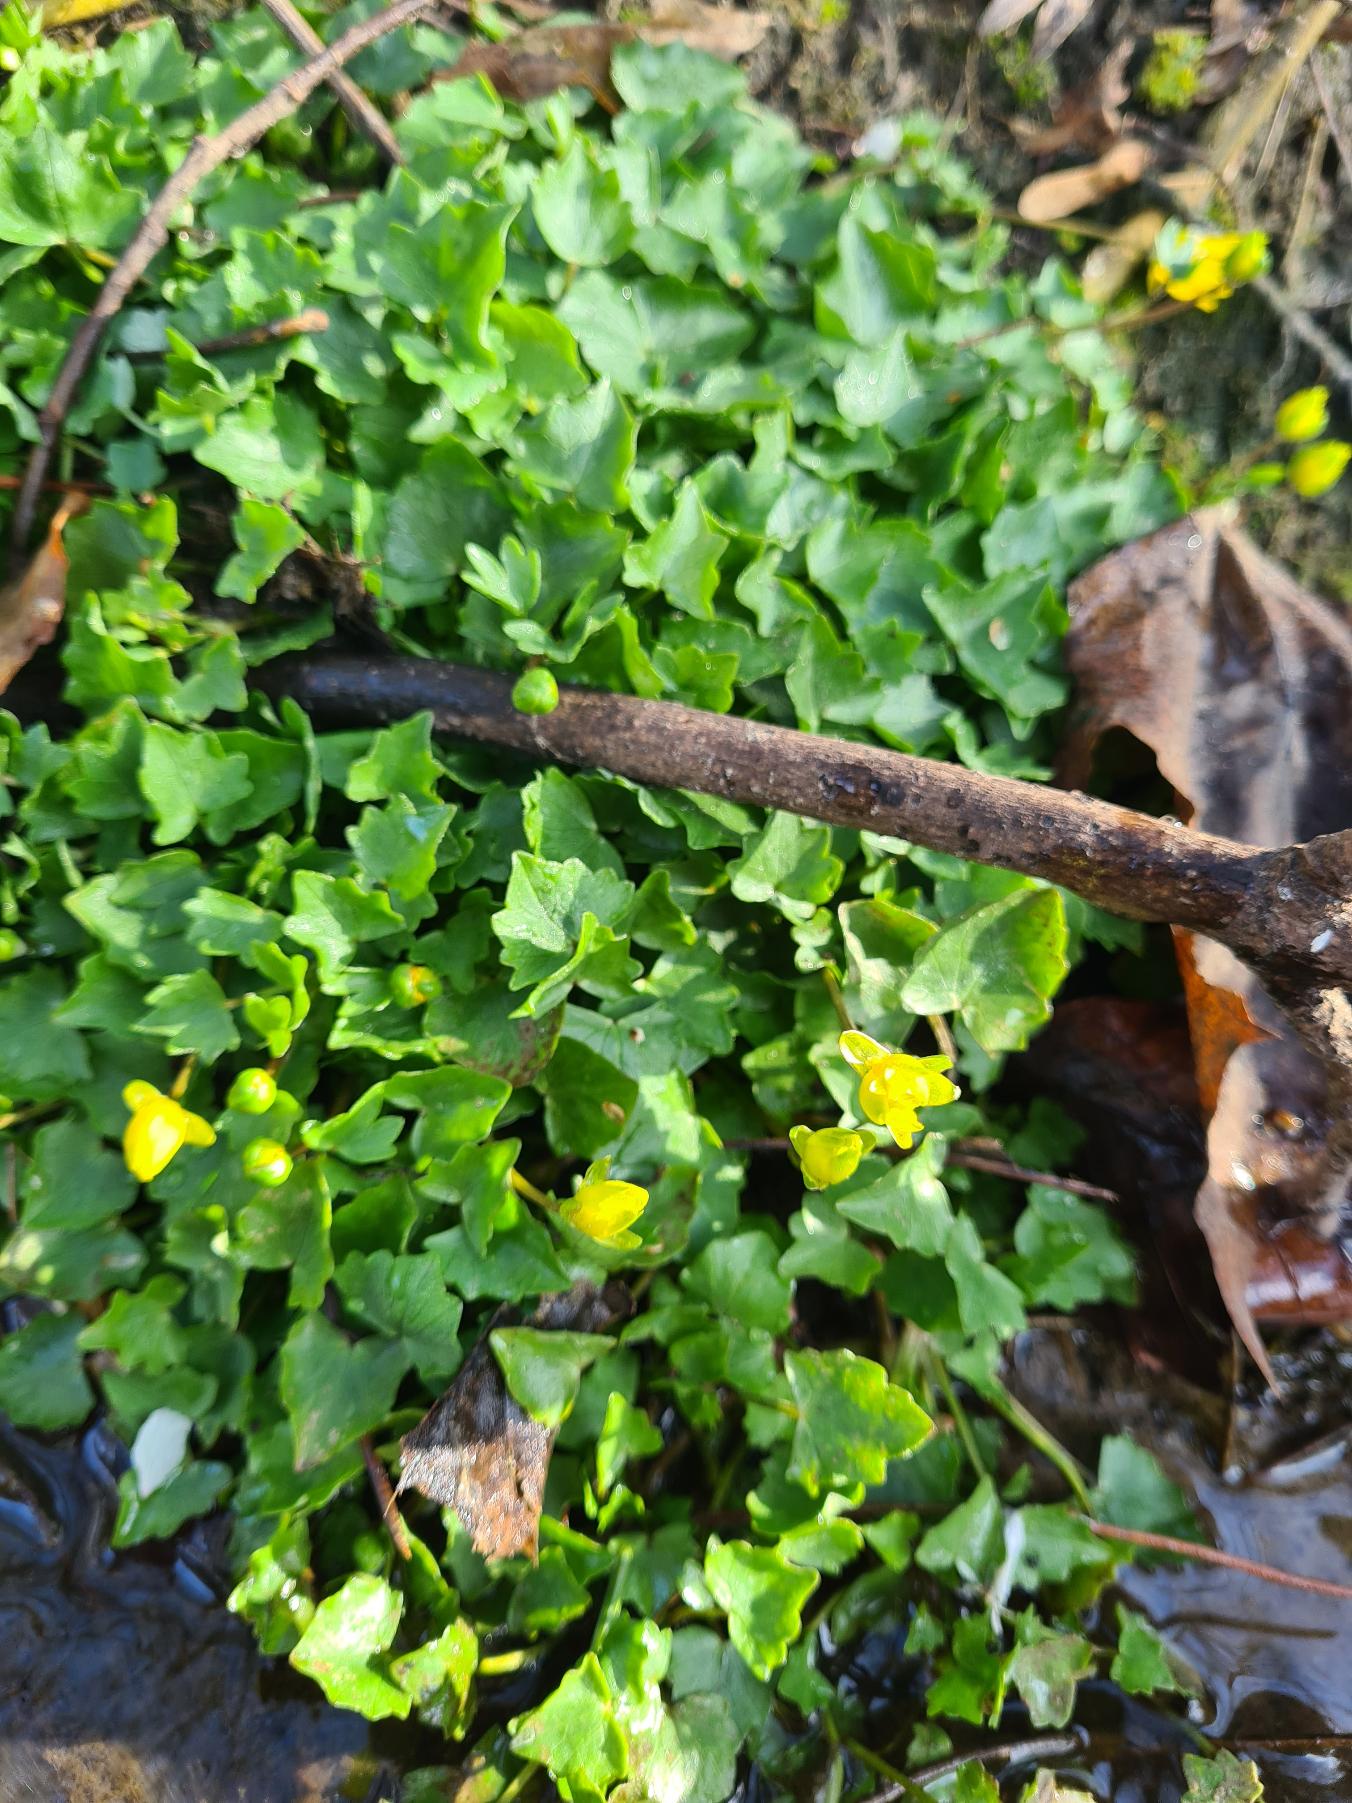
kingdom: Plantae
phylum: Tracheophyta
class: Magnoliopsida
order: Ranunculales
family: Ranunculaceae
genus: Ficaria
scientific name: Ficaria verna
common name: Vorterod
